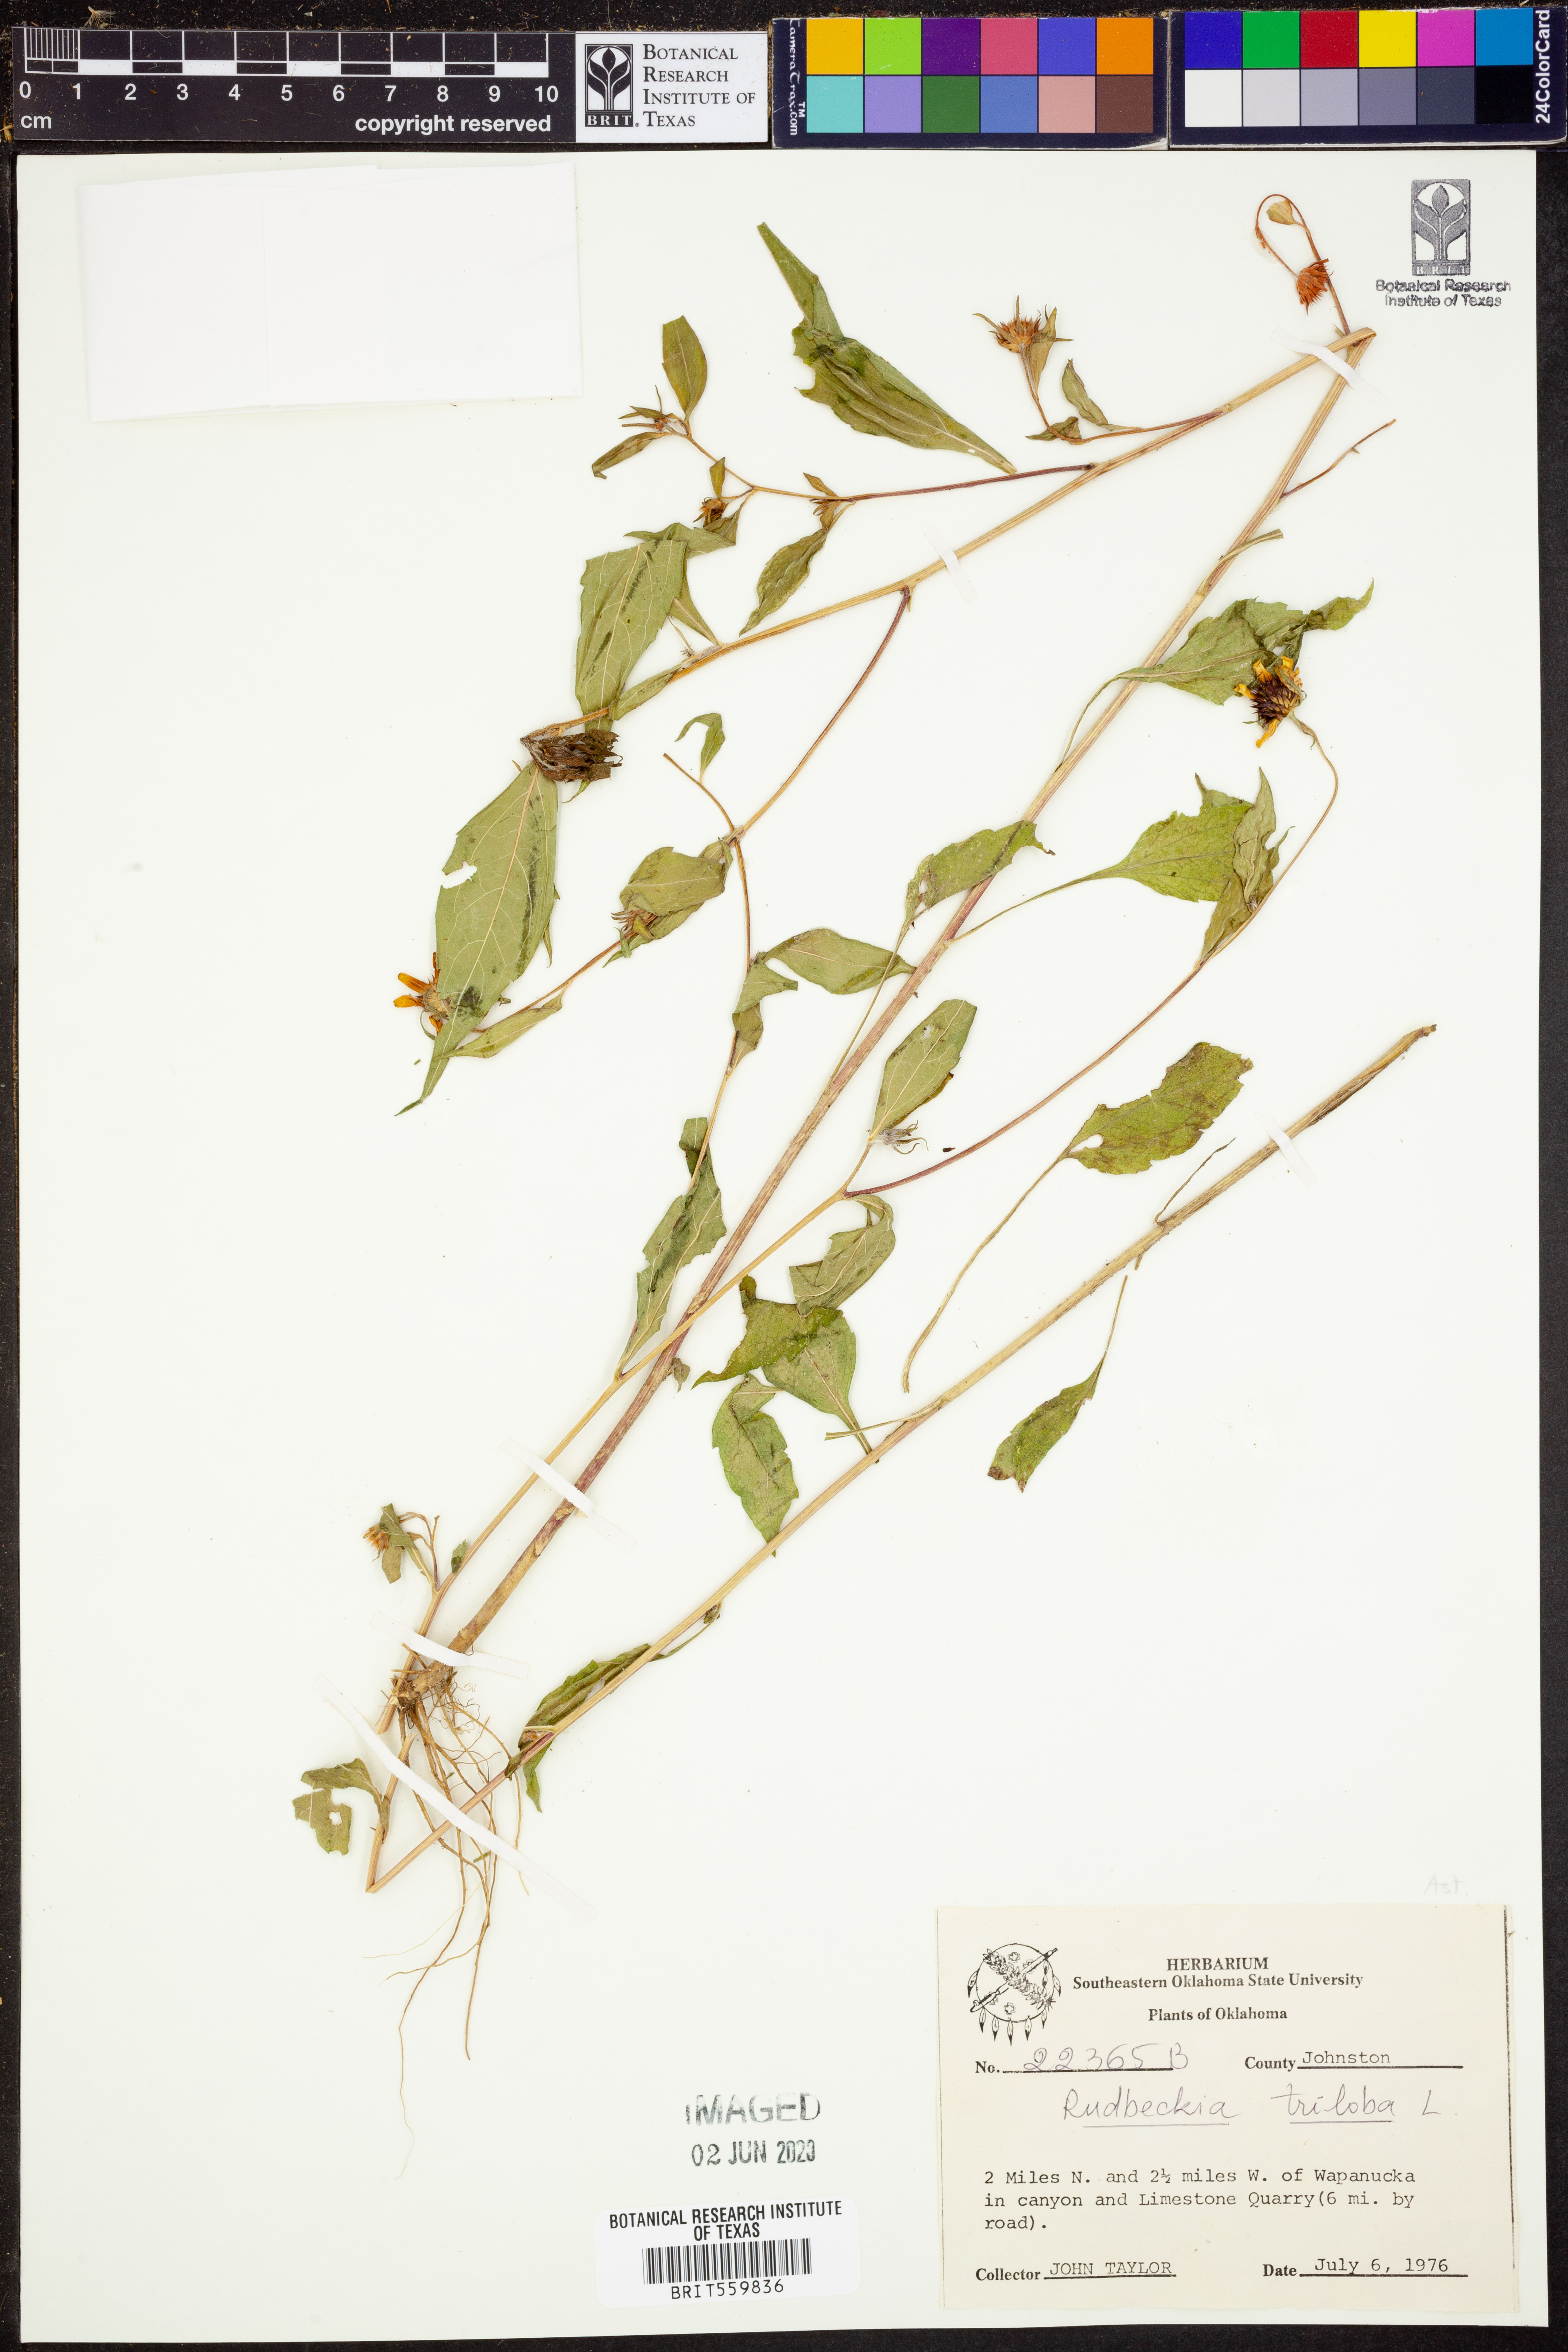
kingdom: Plantae
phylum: Tracheophyta
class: Magnoliopsida
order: Asterales
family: Asteraceae
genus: Rudbeckia
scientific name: Rudbeckia triloba
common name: Thin-leaved coneflower
